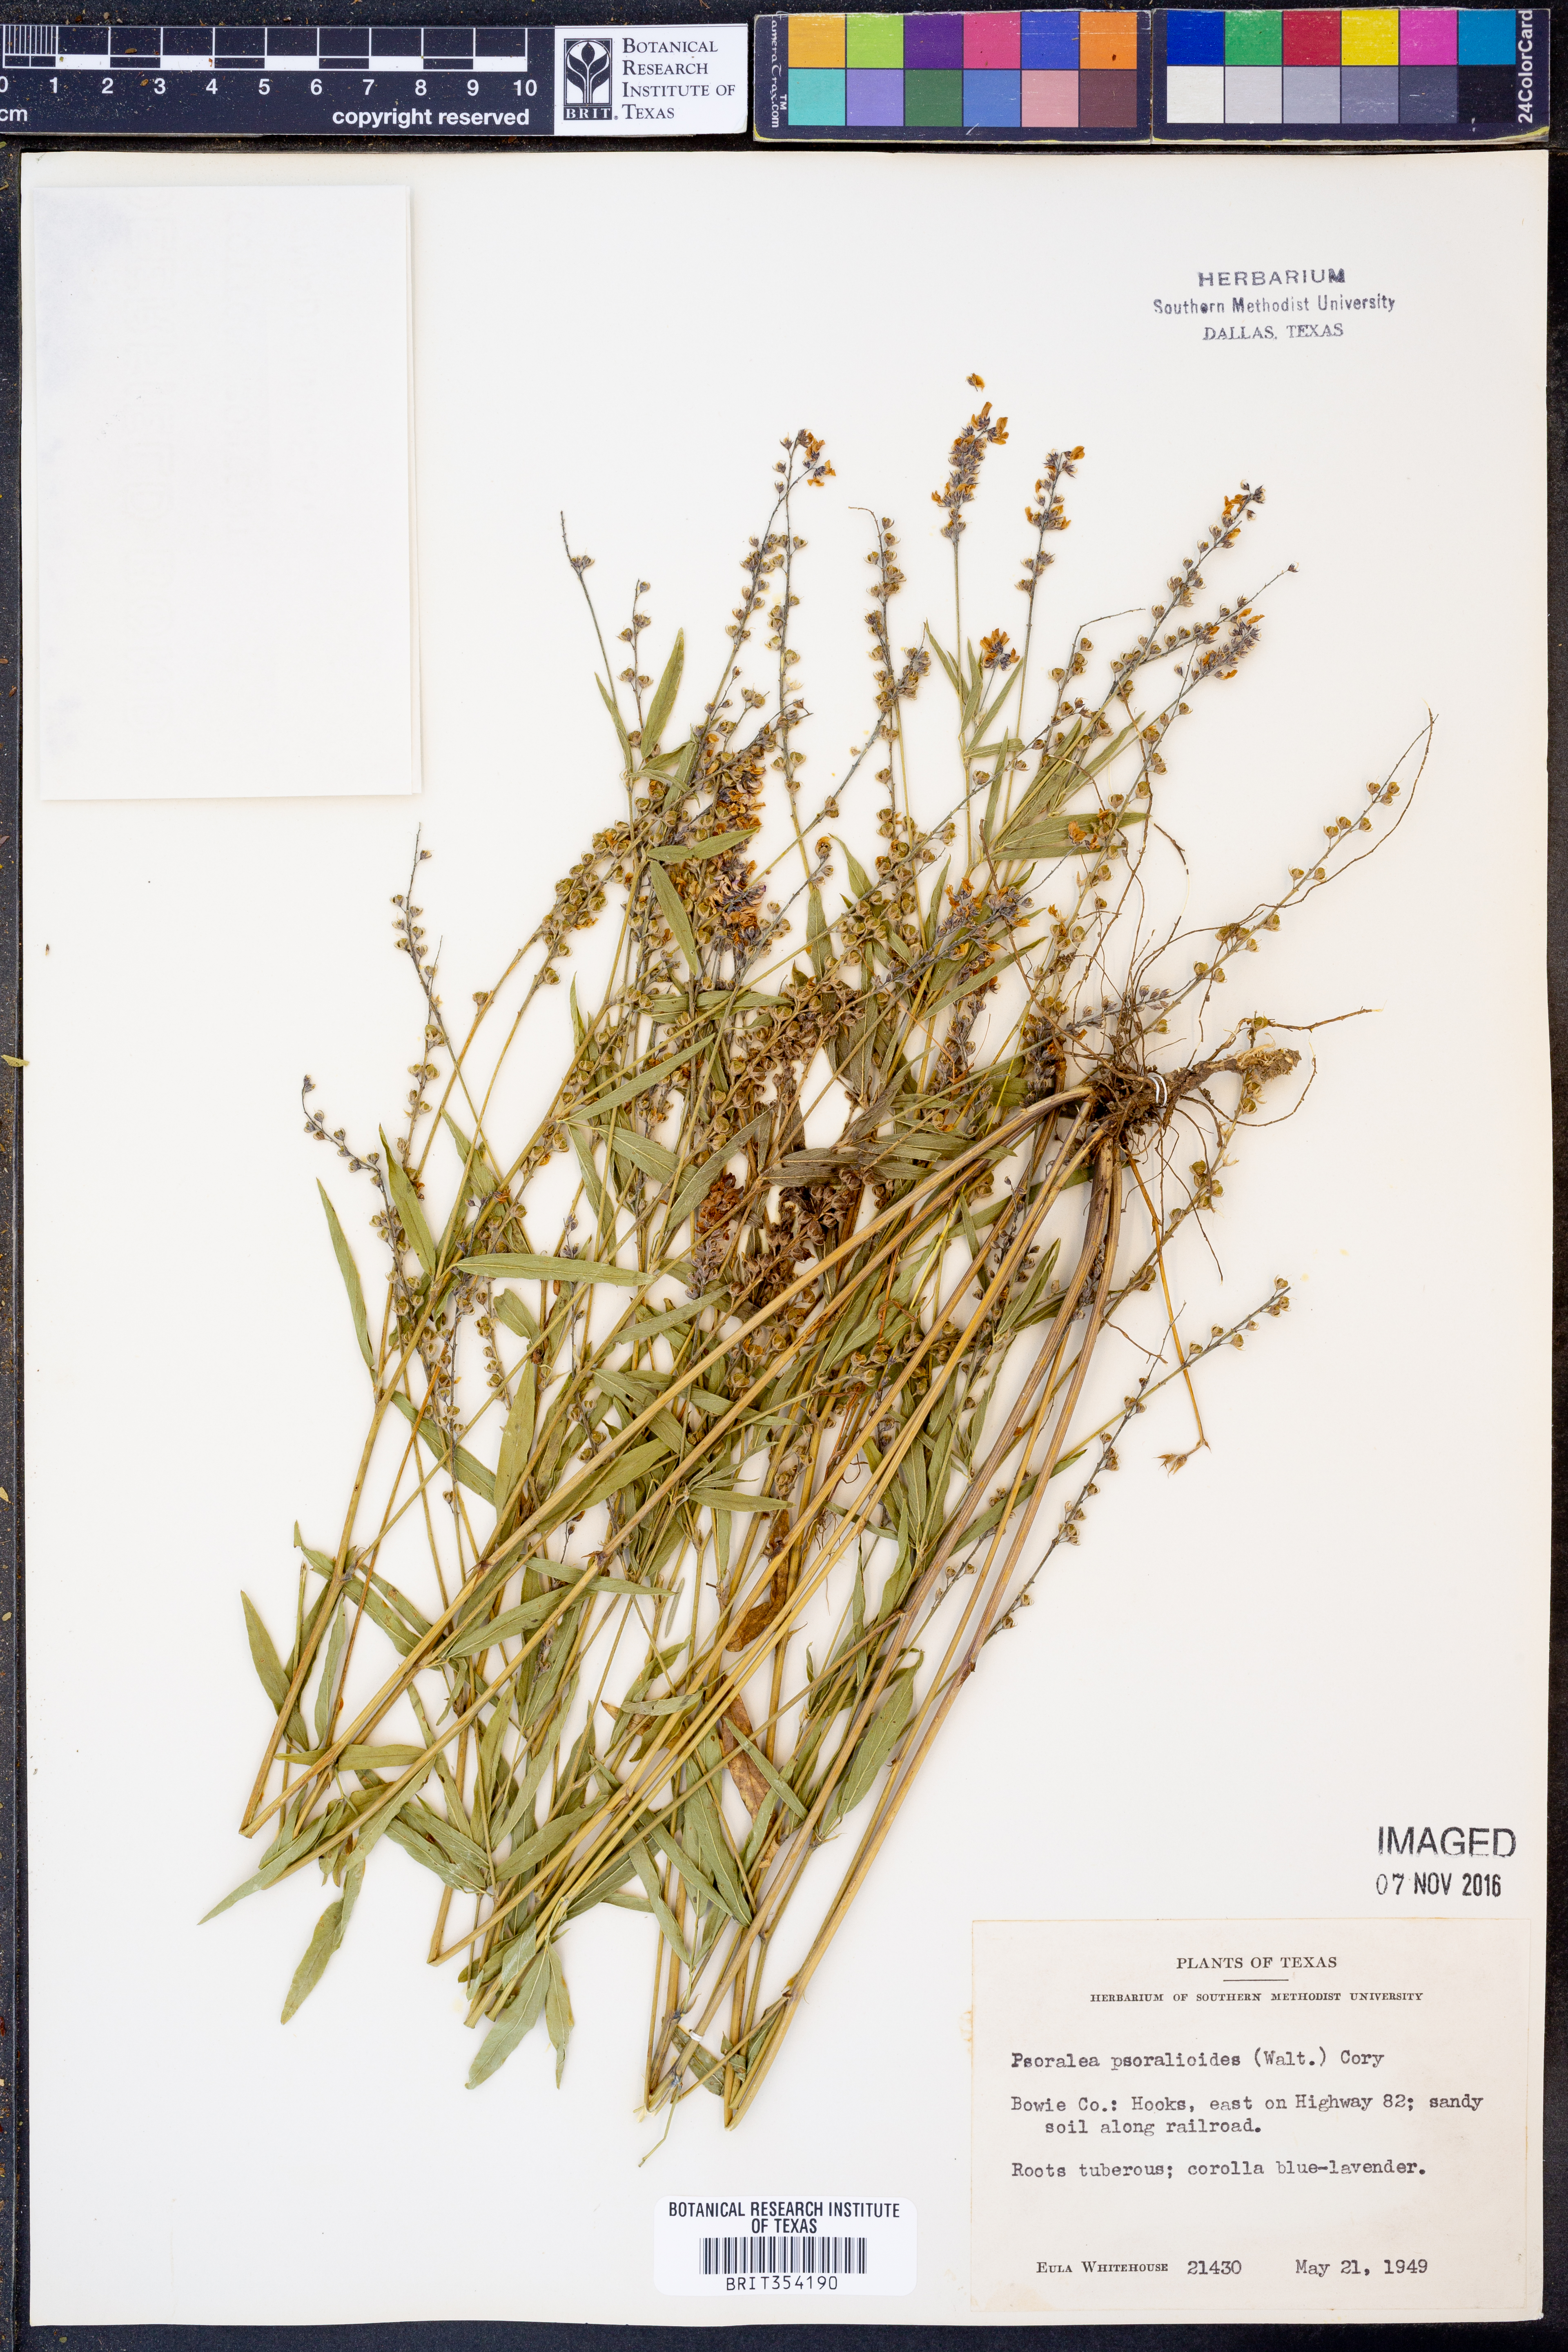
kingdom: Plantae
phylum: Tracheophyta
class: Magnoliopsida
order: Fabales
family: Fabaceae
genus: Orbexilum
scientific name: Orbexilum psoralioides
